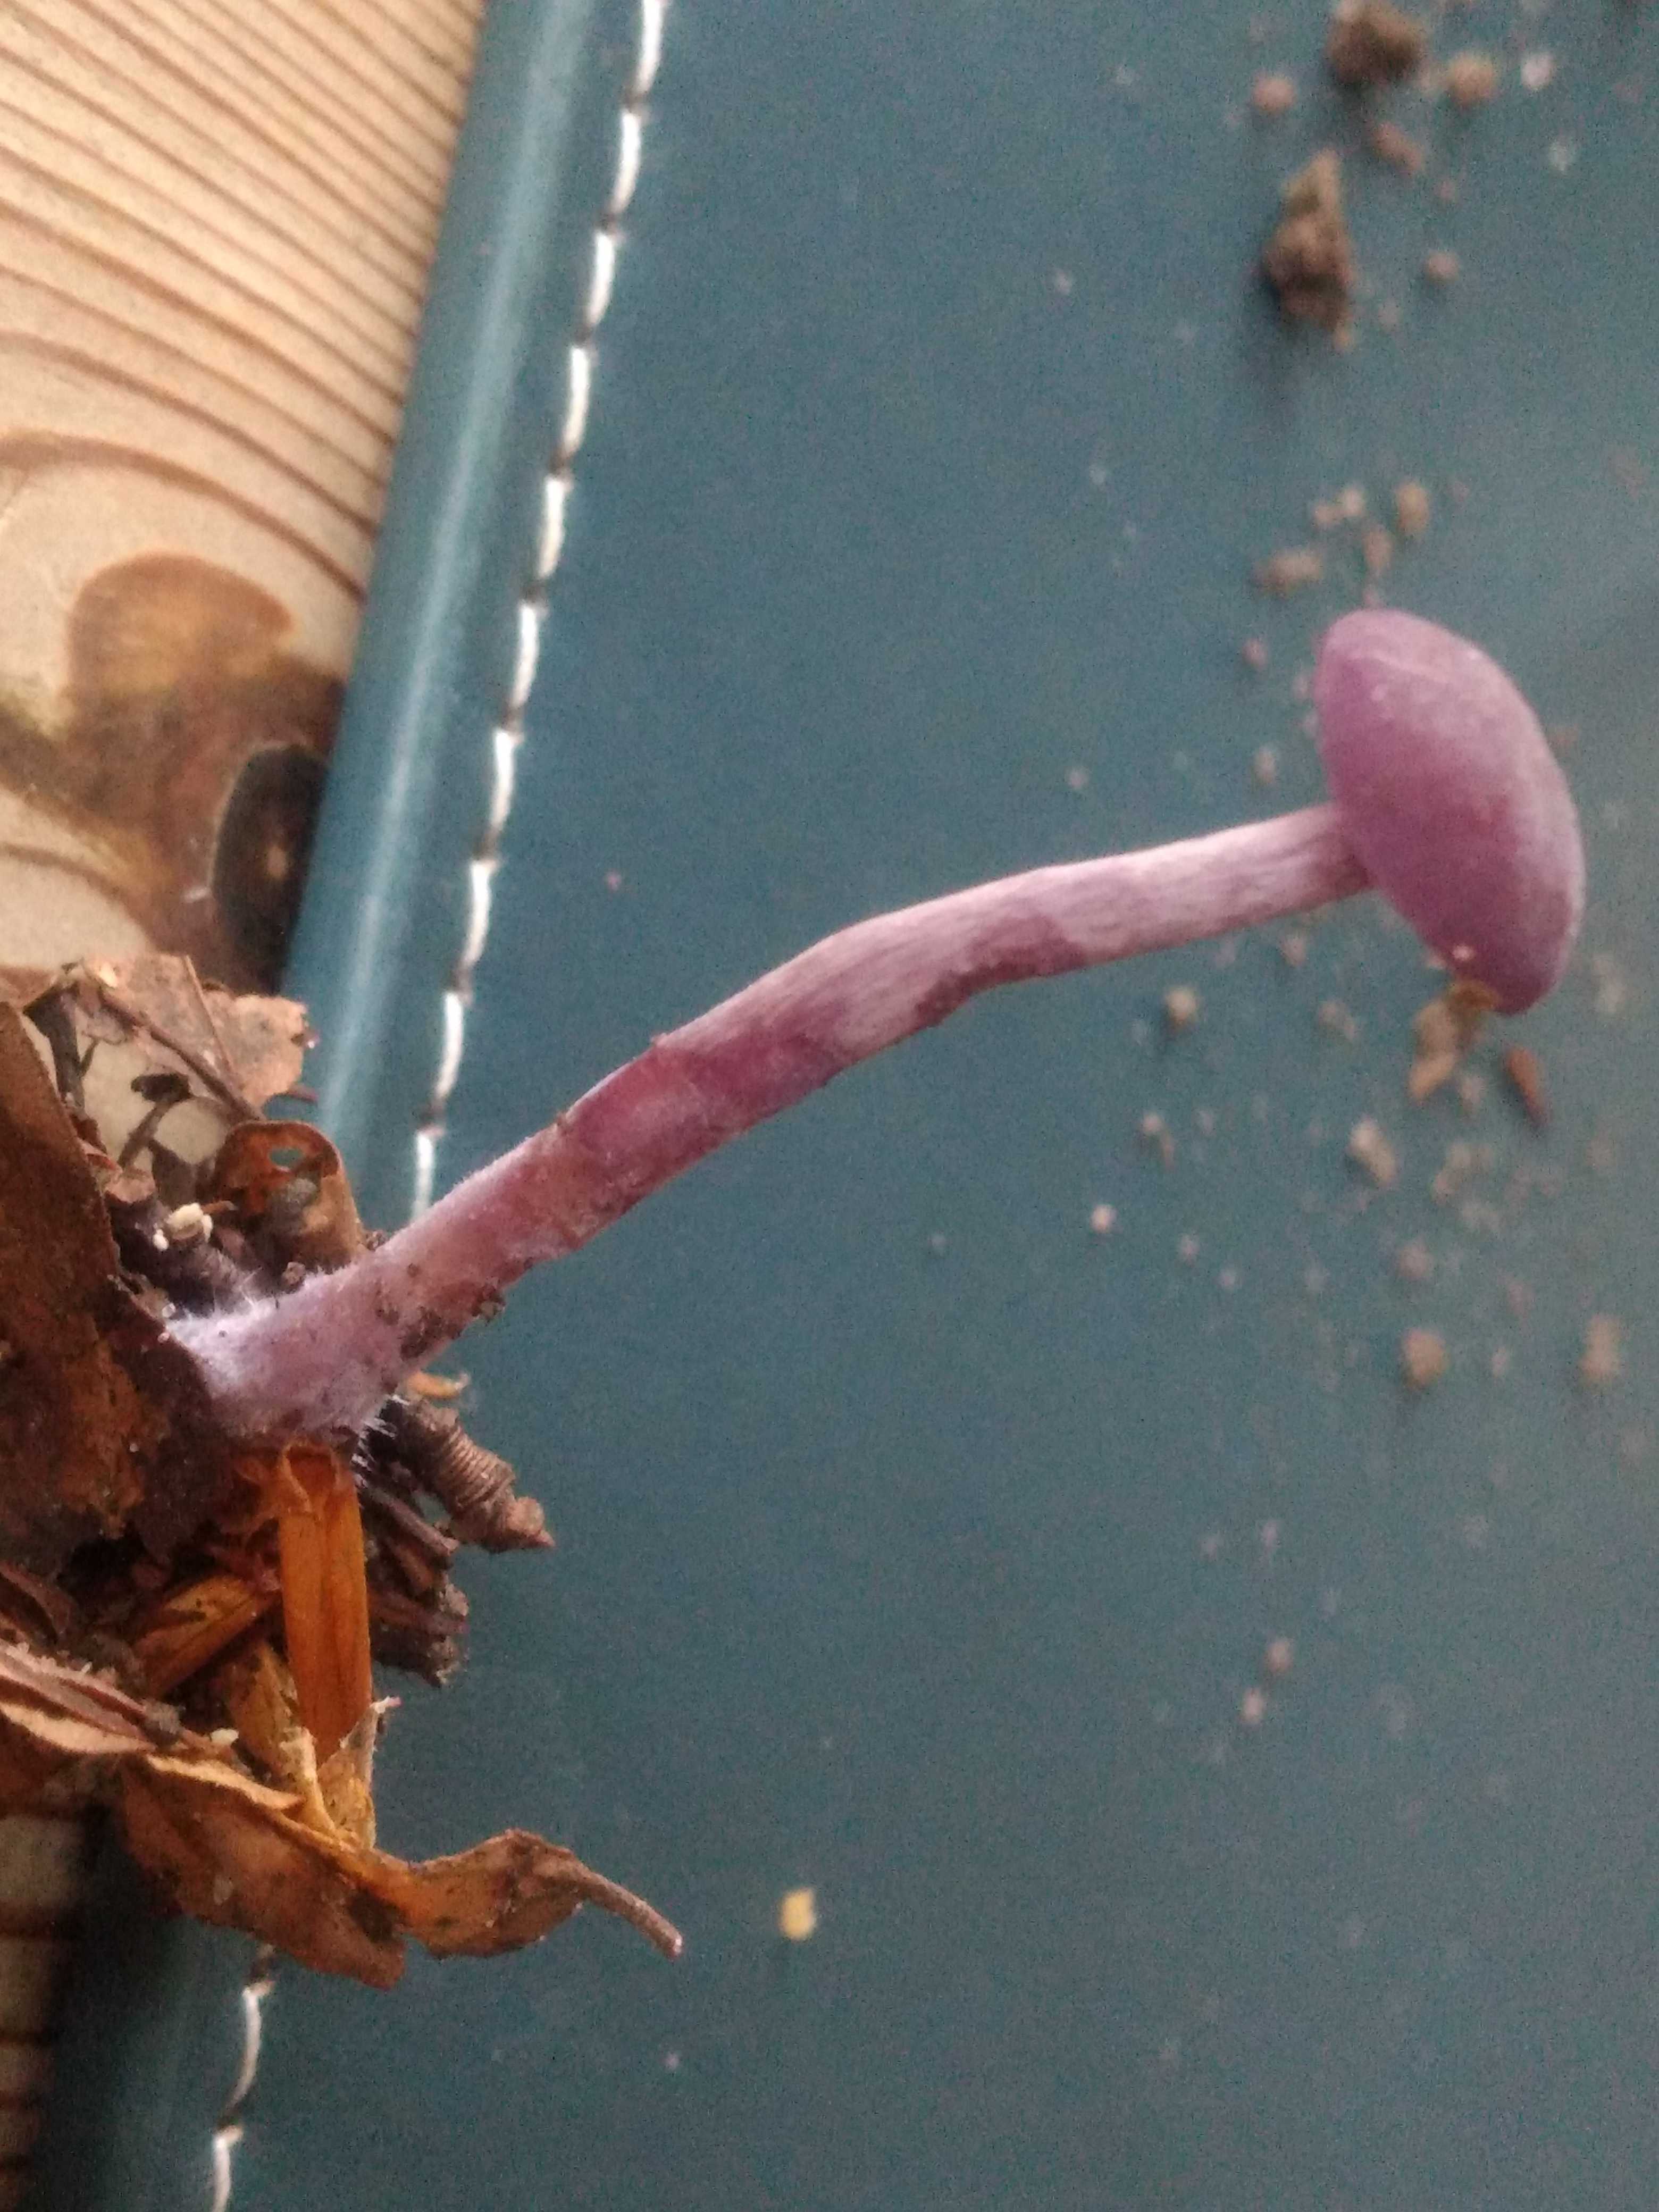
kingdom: Fungi
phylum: Basidiomycota
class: Agaricomycetes
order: Agaricales
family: Hydnangiaceae
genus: Laccaria
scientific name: Laccaria amethystina
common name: violet ametysthat
